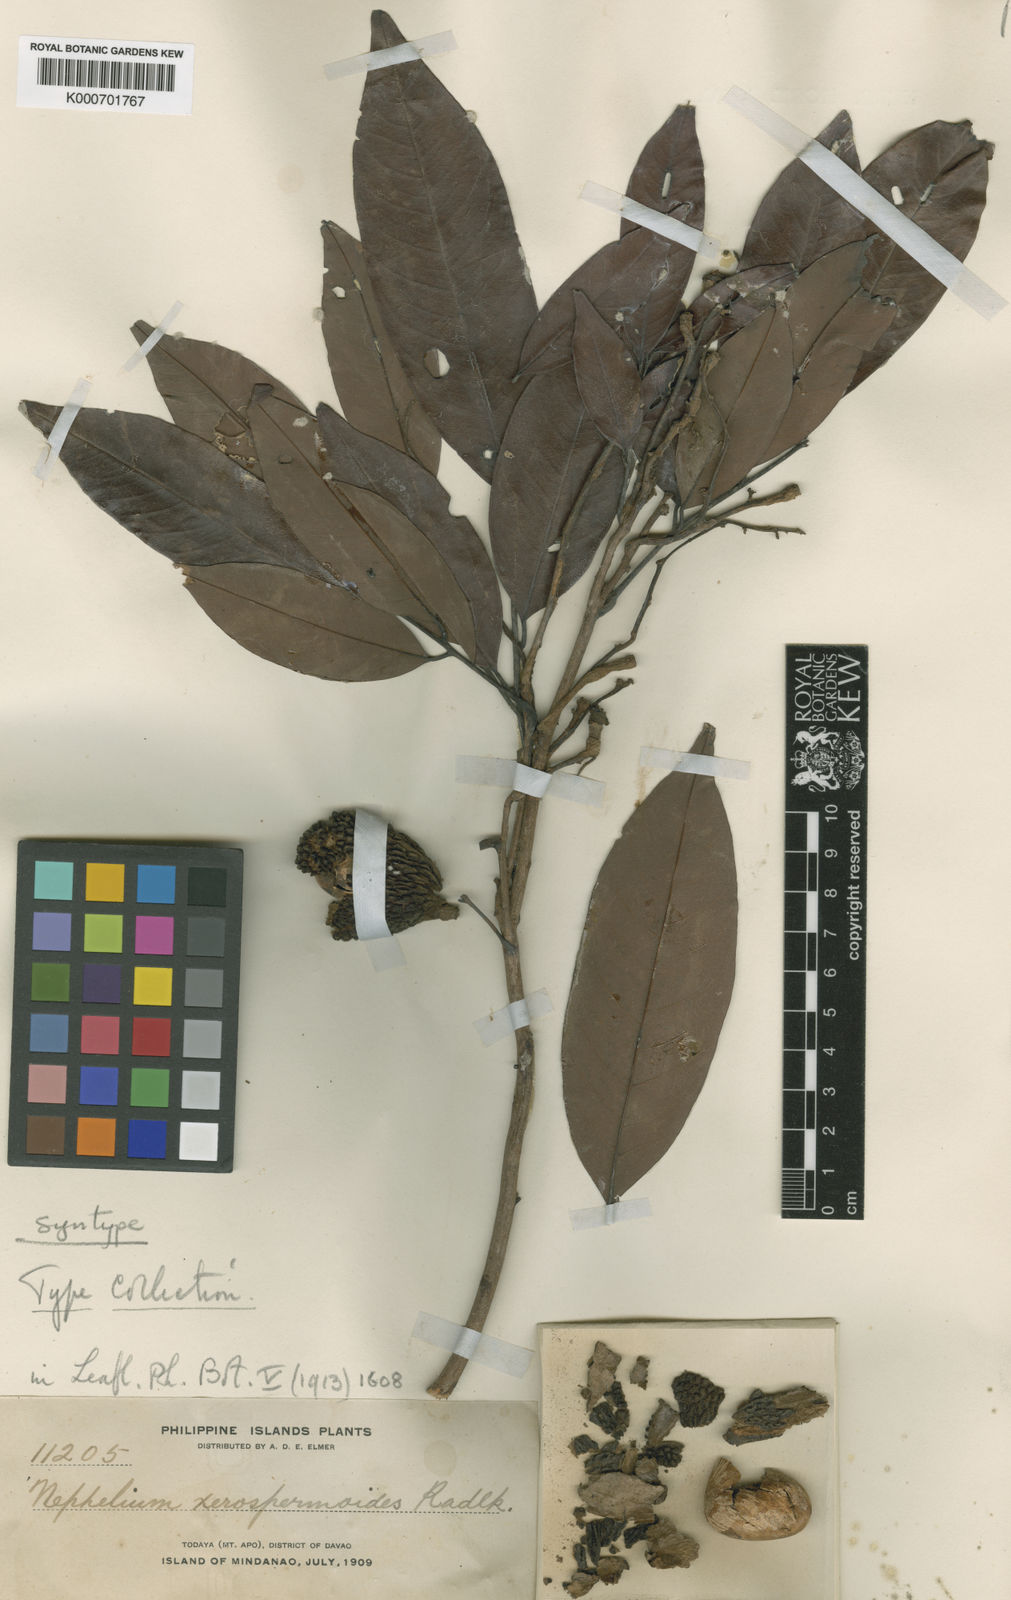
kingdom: Plantae
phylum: Tracheophyta
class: Magnoliopsida
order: Sapindales
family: Sapindaceae
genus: Nephelium
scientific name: Nephelium melanomiscum
